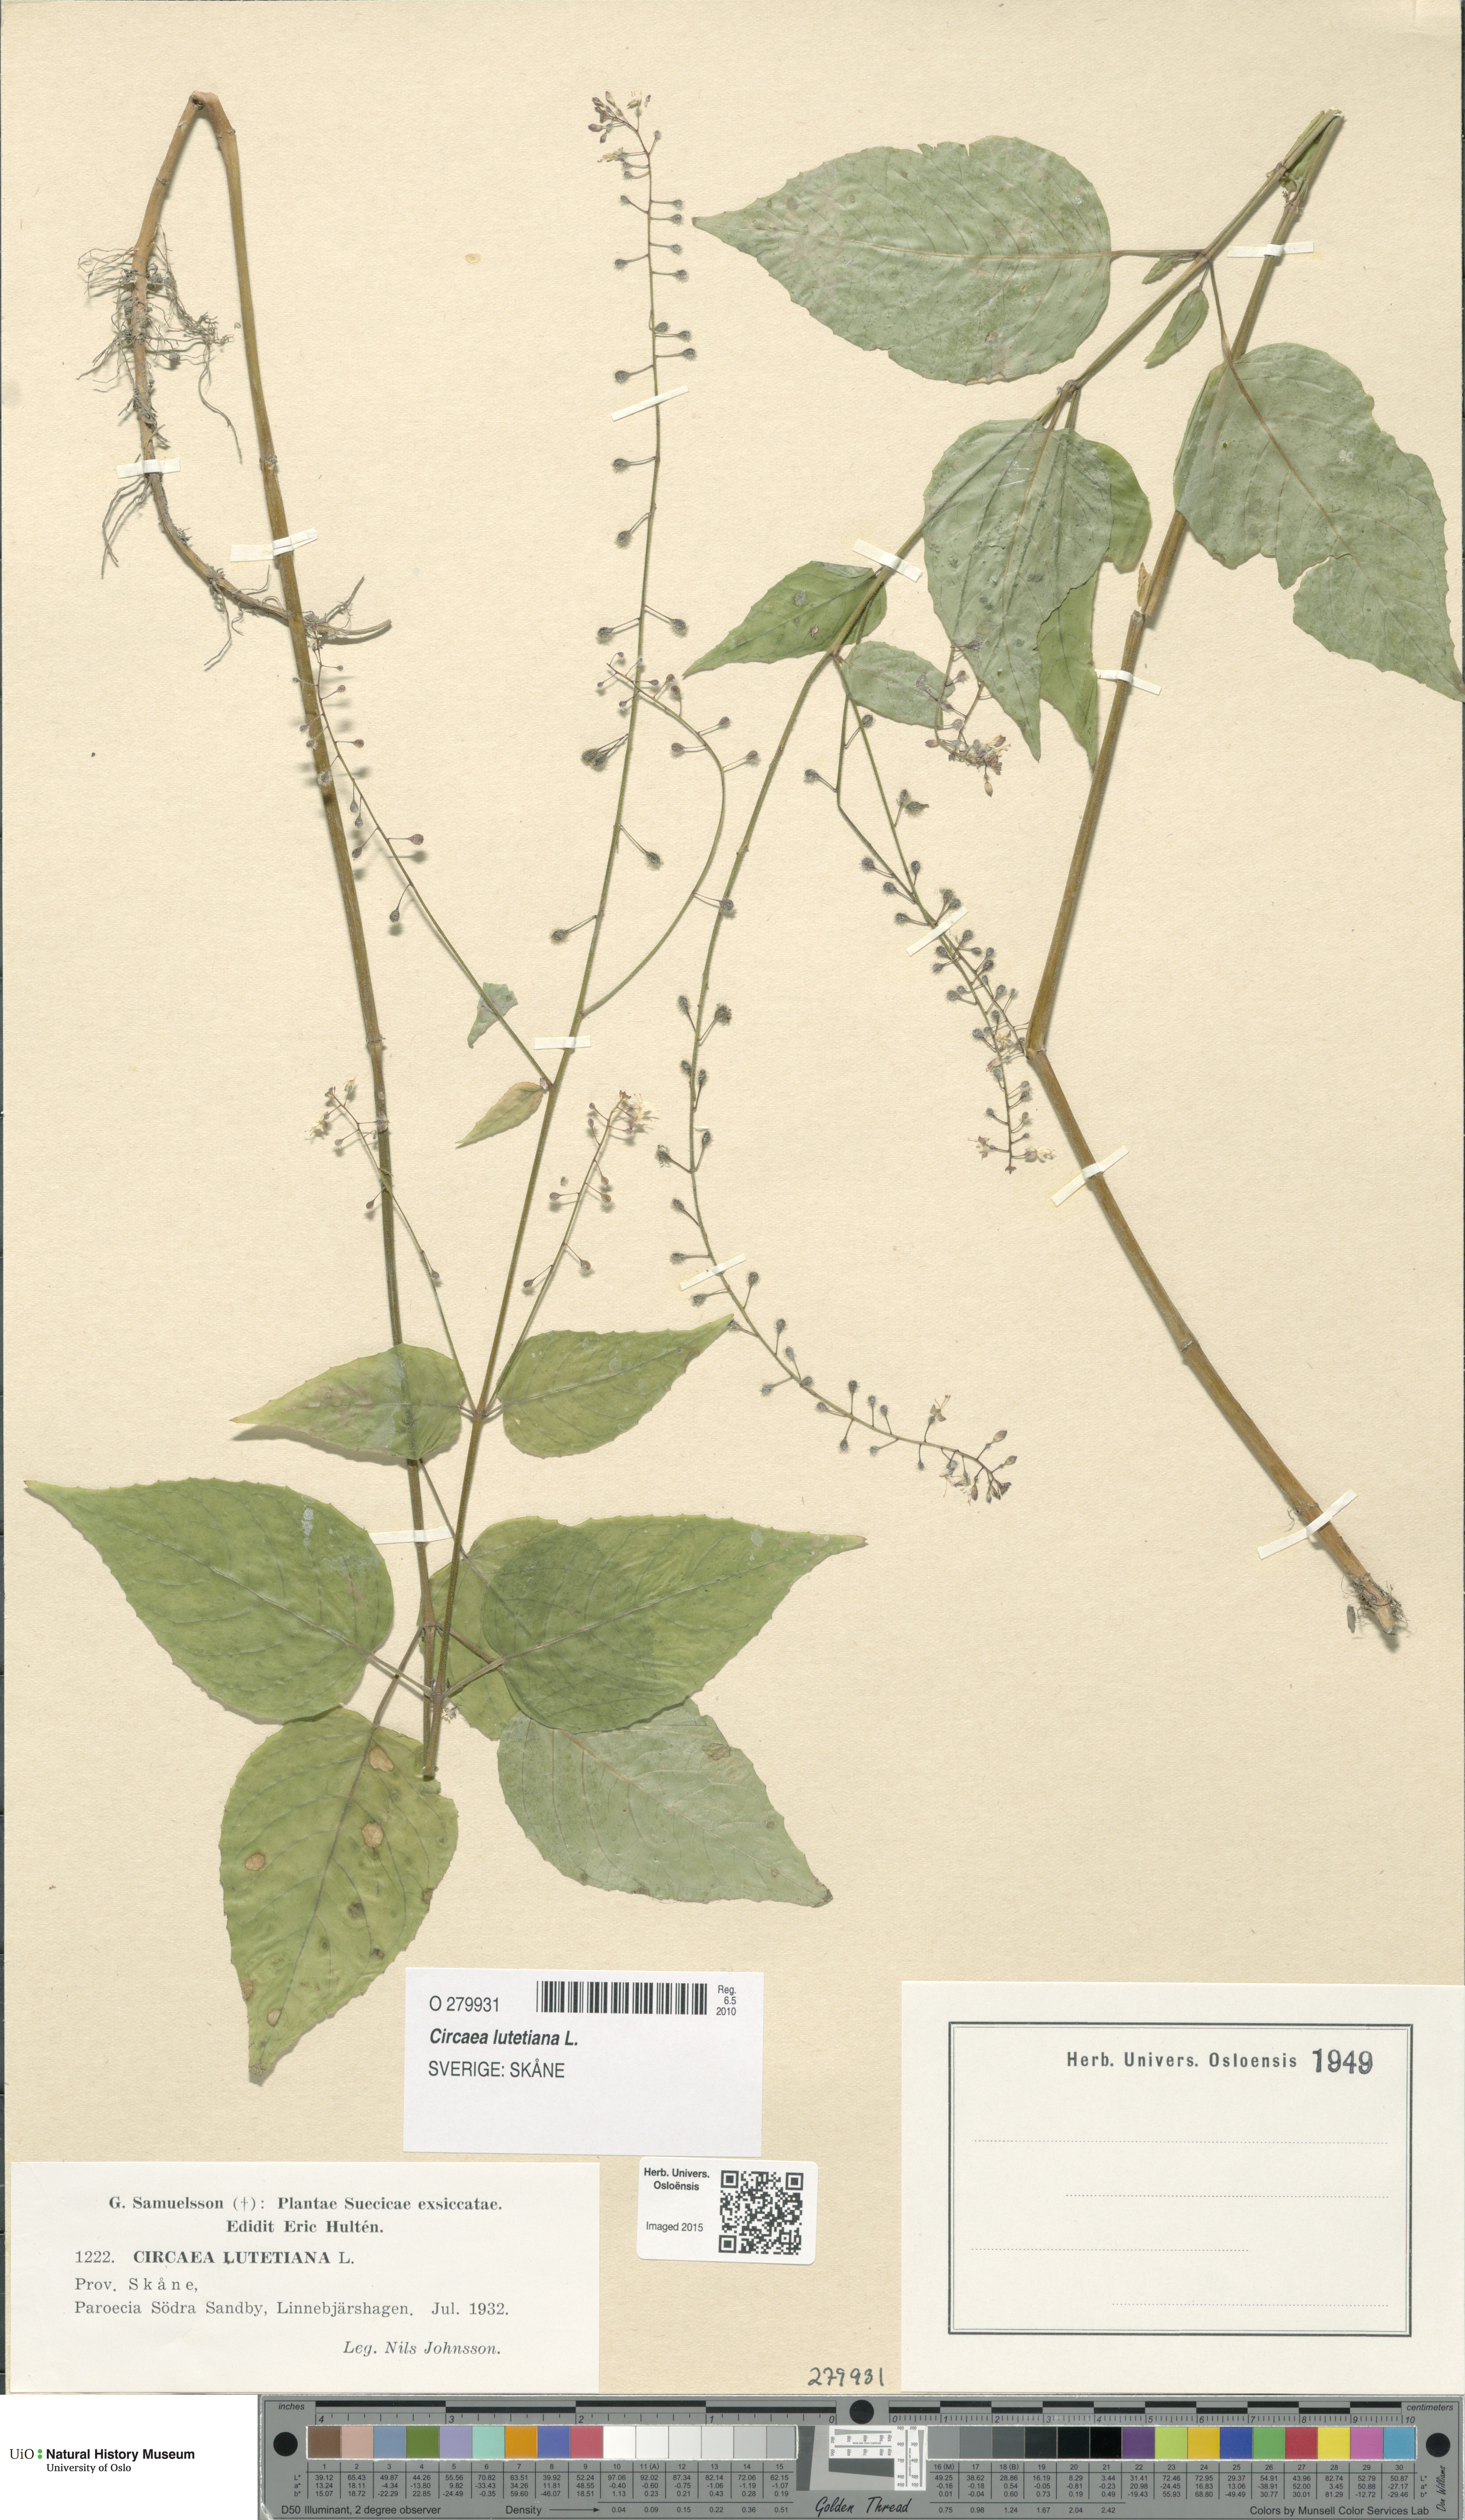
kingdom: Plantae
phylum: Tracheophyta
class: Magnoliopsida
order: Myrtales
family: Onagraceae
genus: Circaea
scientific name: Circaea lutetiana
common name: Enchanter's-nightshade
